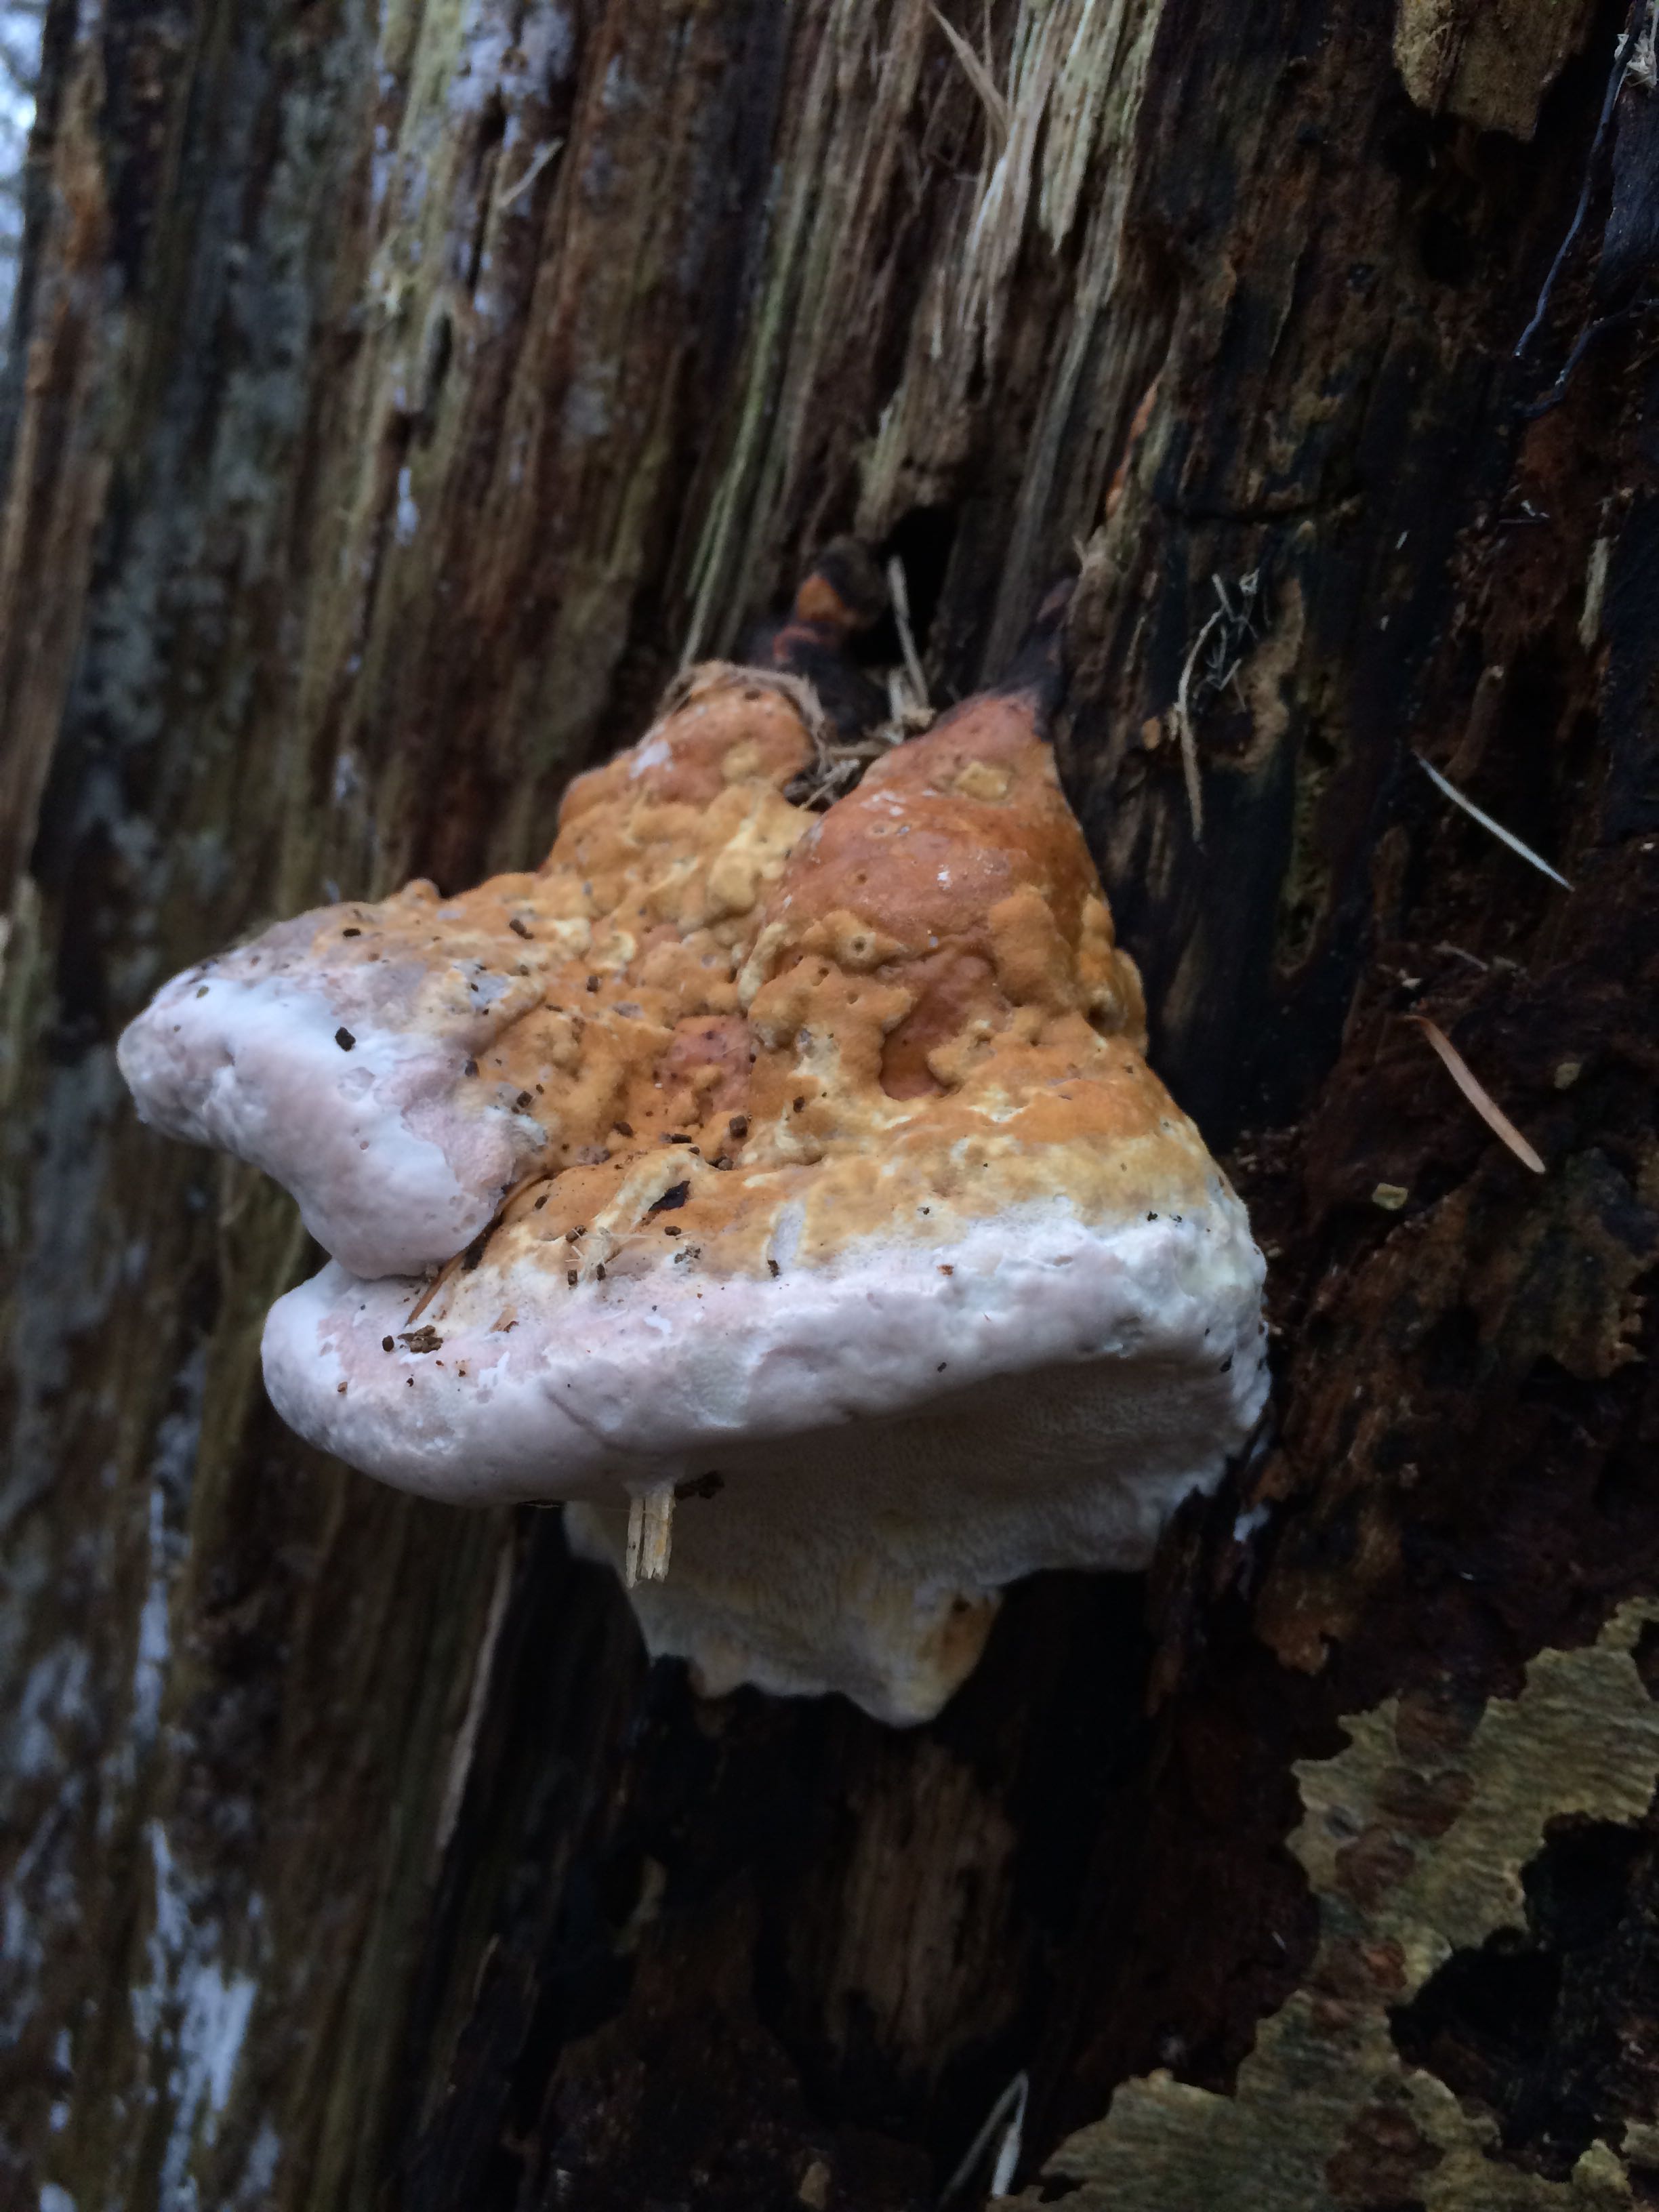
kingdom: Fungi
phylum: Basidiomycota
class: Agaricomycetes
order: Polyporales
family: Fomitopsidaceae
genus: Fomitopsis
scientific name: Fomitopsis pinicola
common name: randbæltet hovporesvamp
